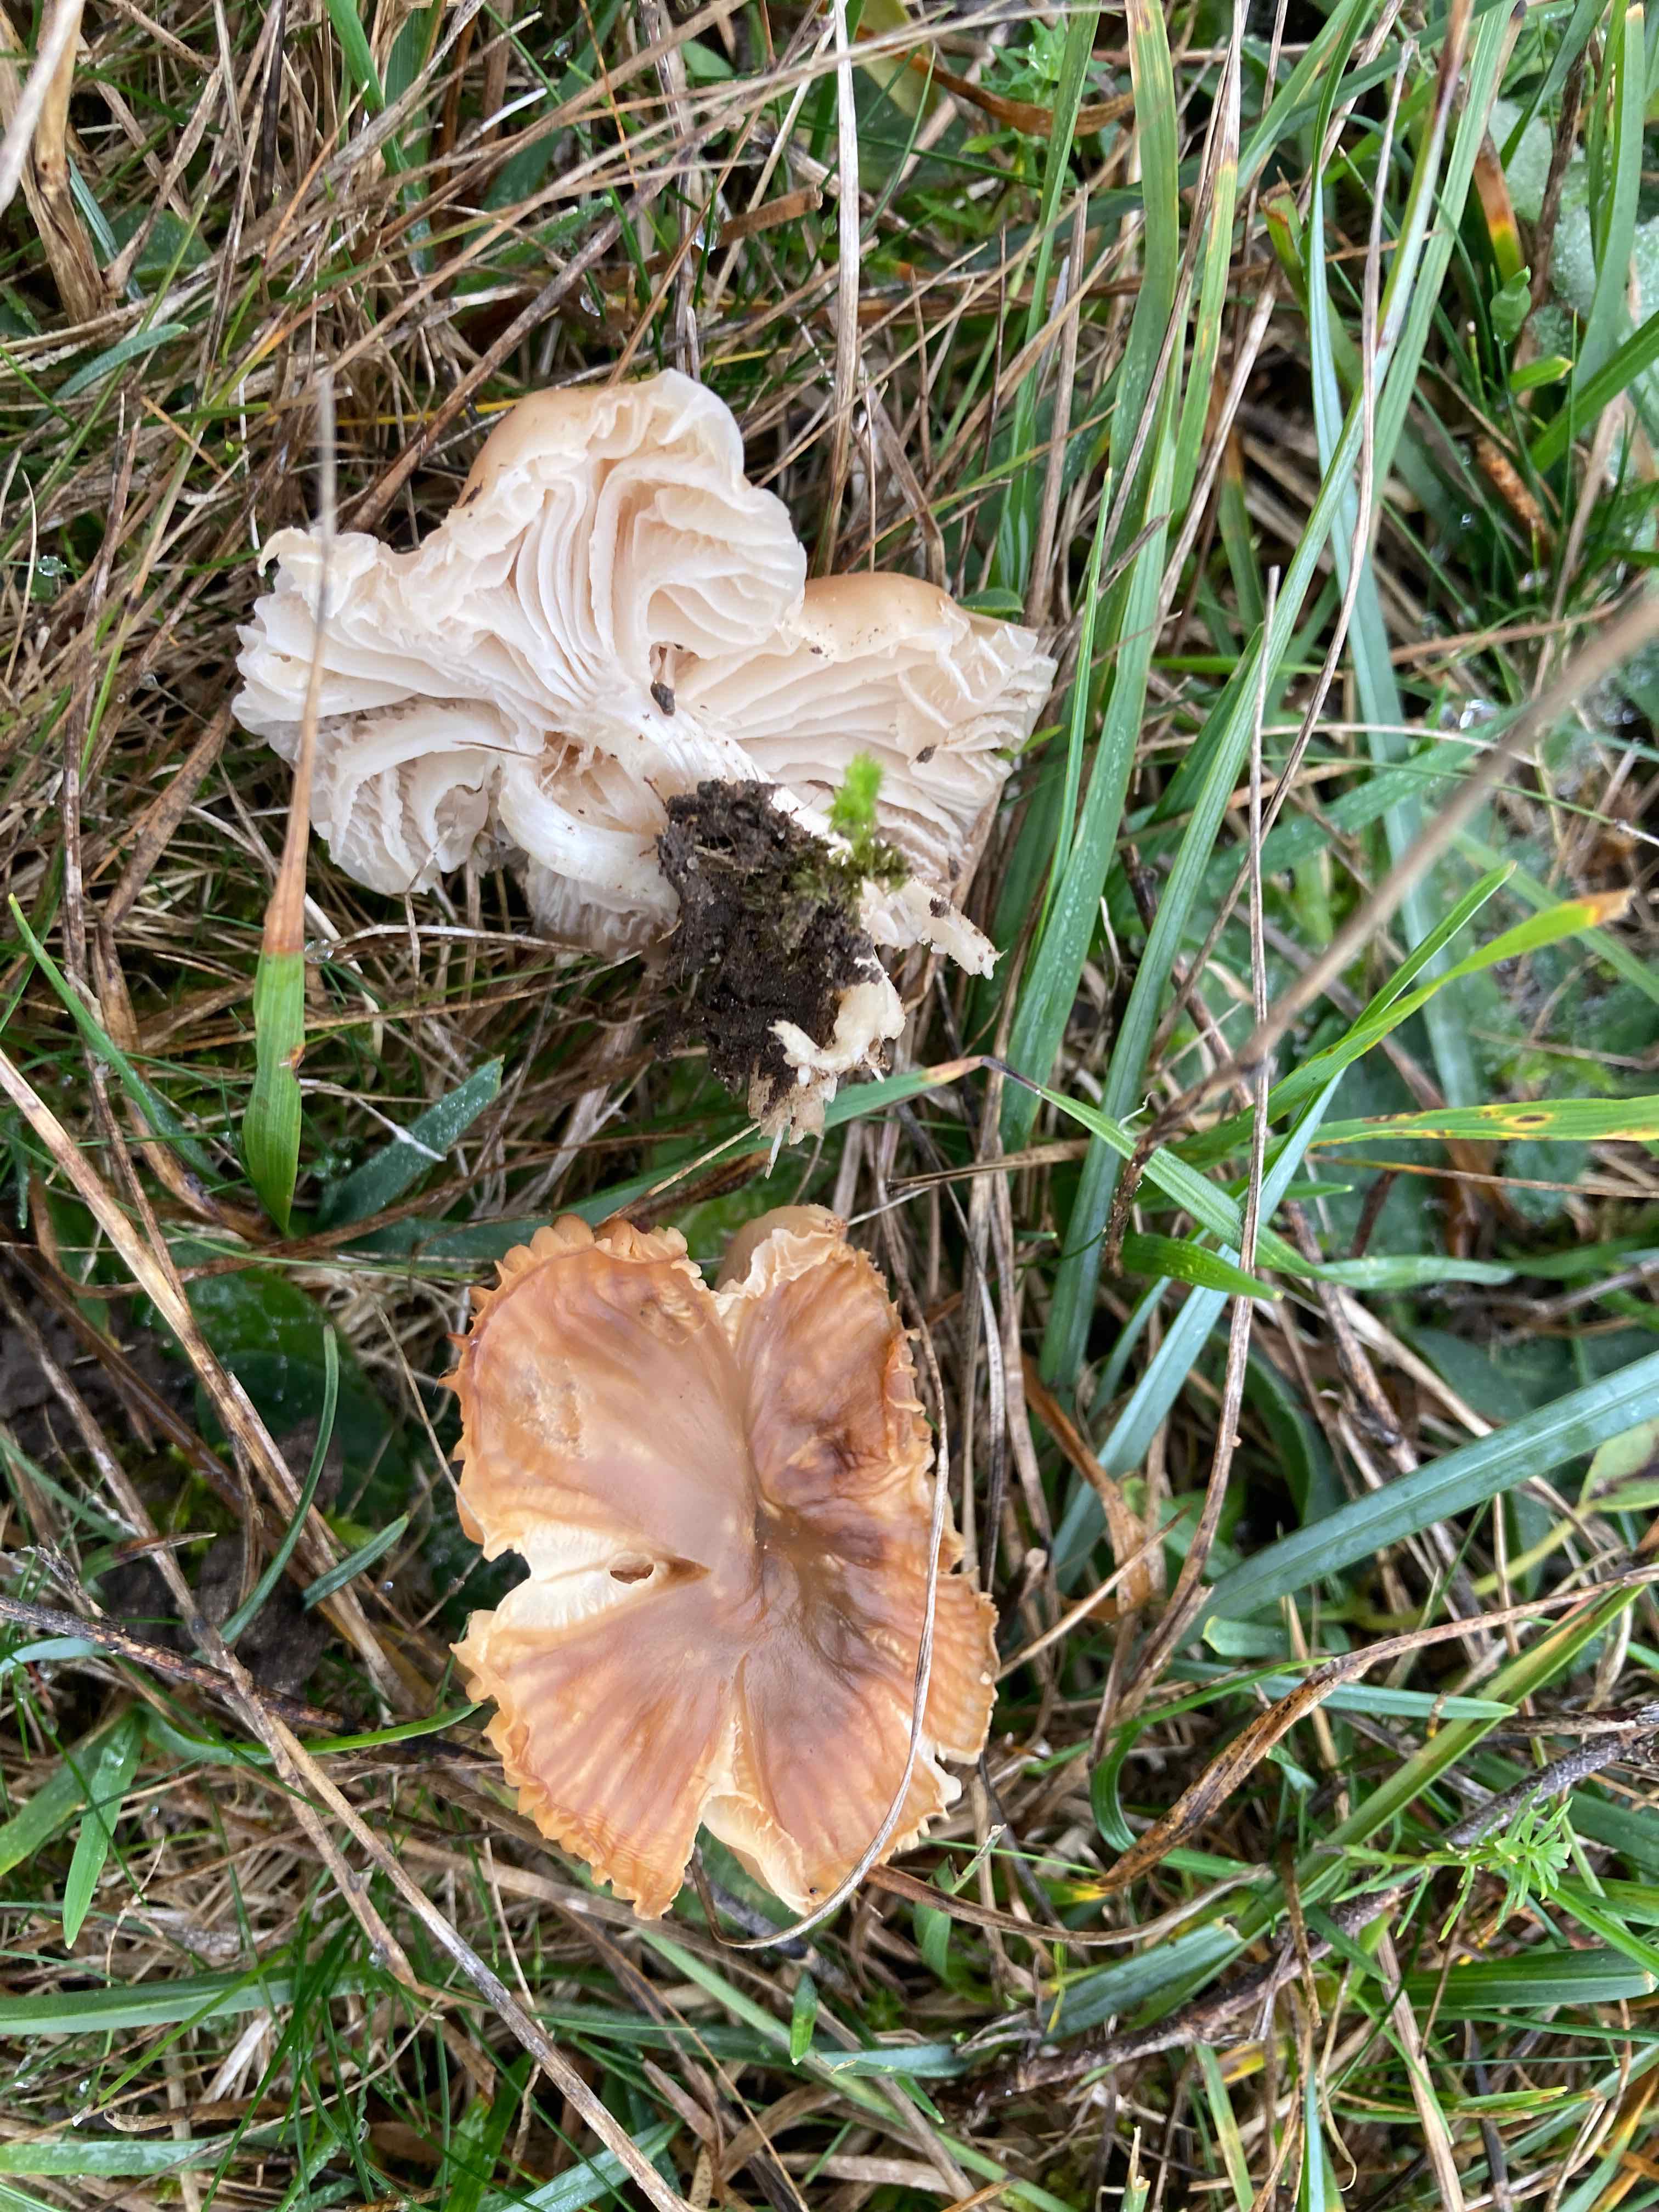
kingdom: Fungi
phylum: Basidiomycota
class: Agaricomycetes
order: Agaricales
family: Hygrophoraceae
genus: Cuphophyllus
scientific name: Cuphophyllus colemannianus
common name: rødbrun vokshat
